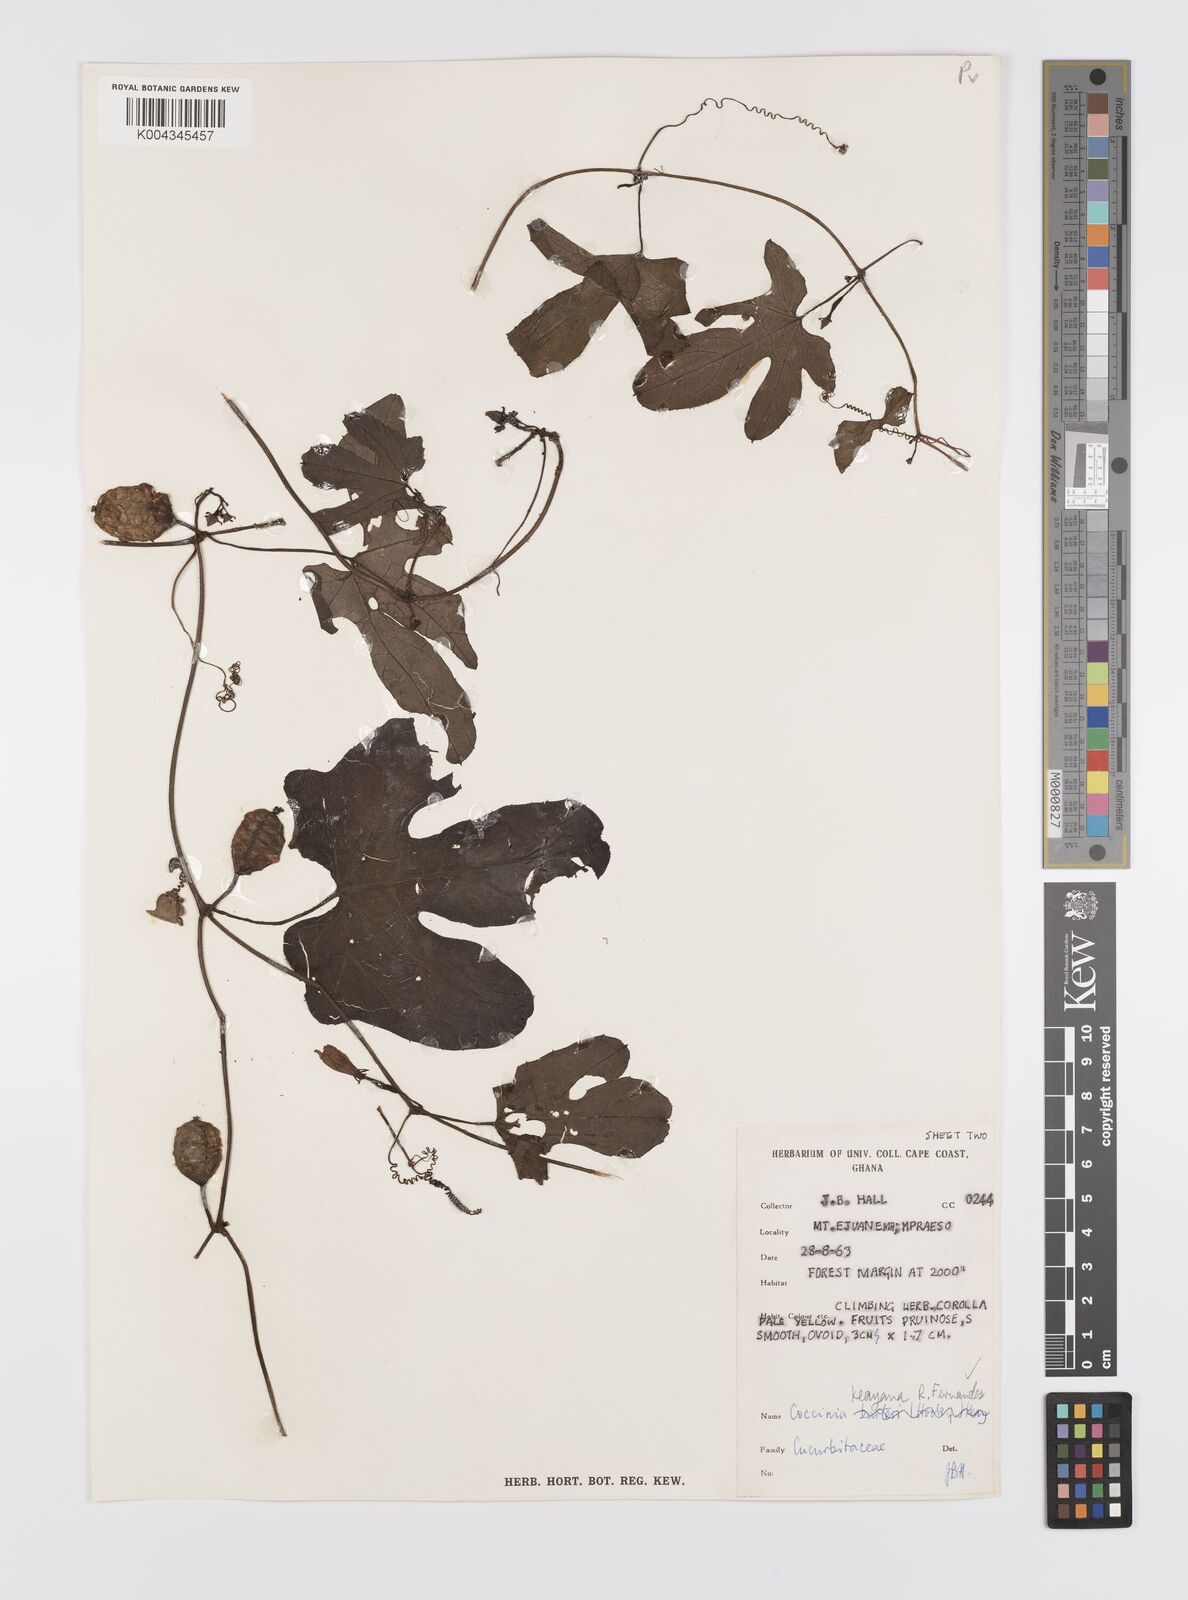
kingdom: Plantae
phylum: Tracheophyta
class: Magnoliopsida
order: Cucurbitales
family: Cucurbitaceae
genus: Coccinia
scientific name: Coccinia keayana
